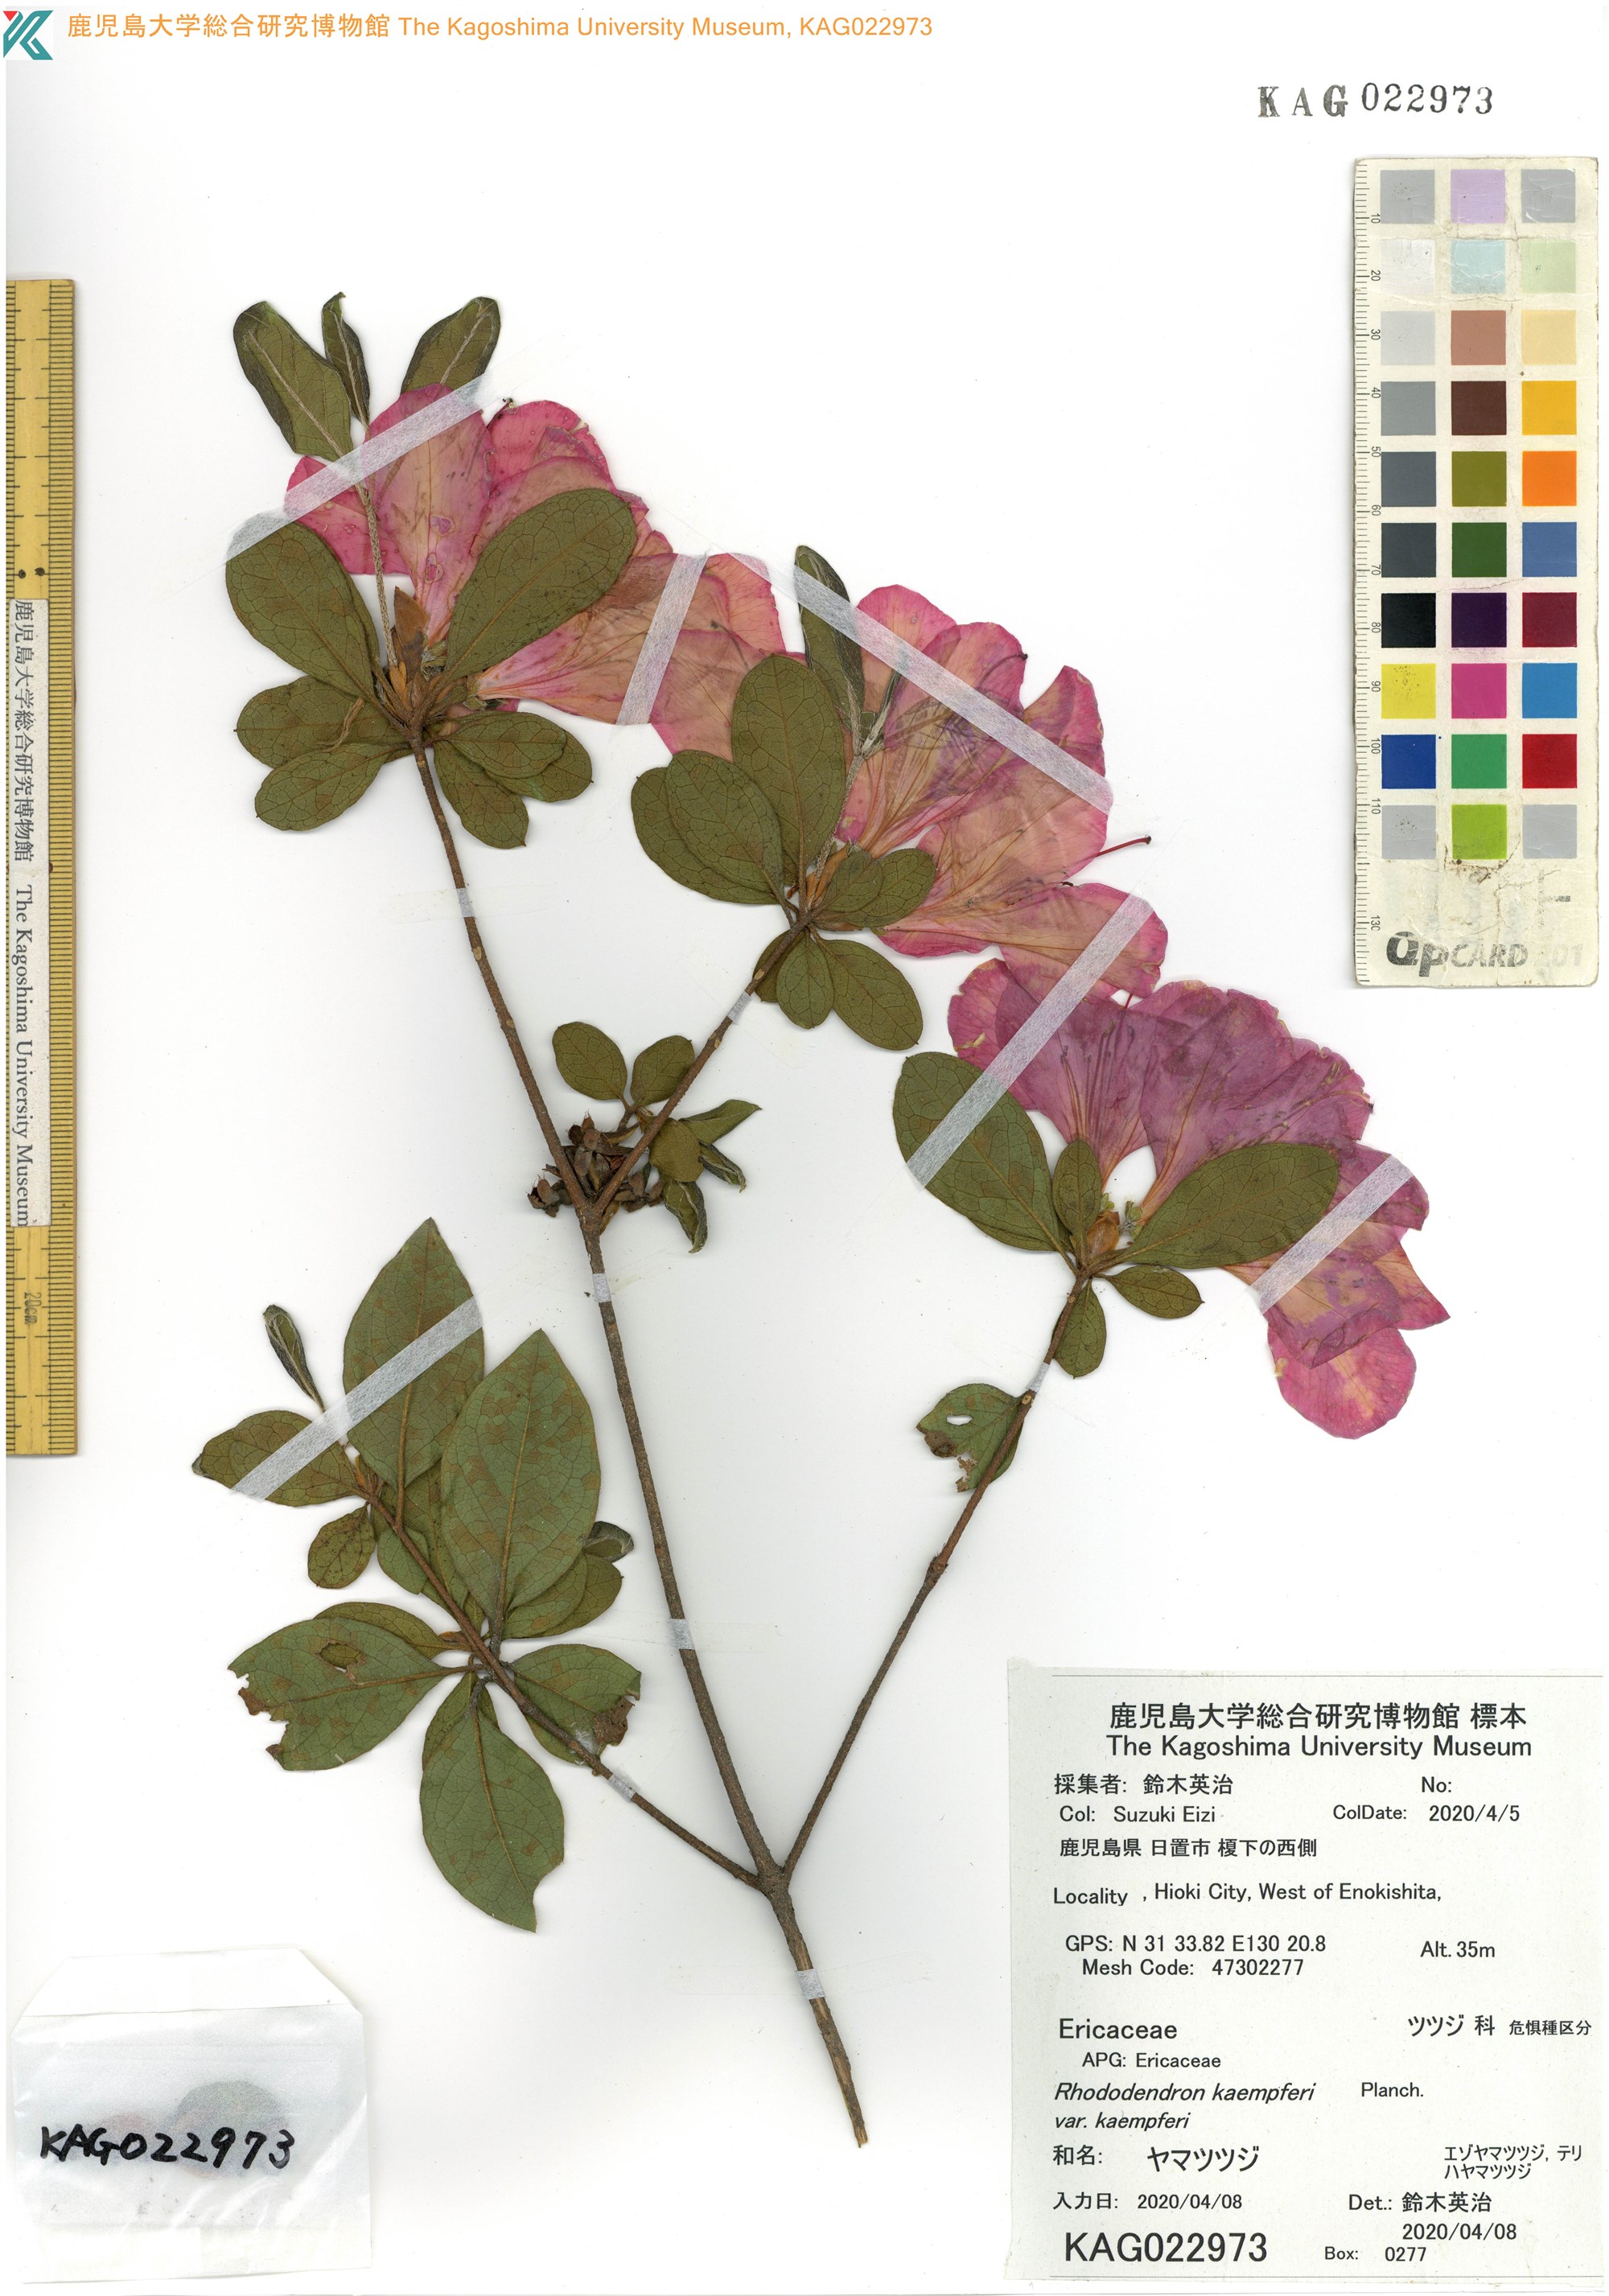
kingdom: Plantae
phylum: Tracheophyta
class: Magnoliopsida
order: Ericales
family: Ericaceae
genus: Rhododendron
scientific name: Rhododendron kaempferi
